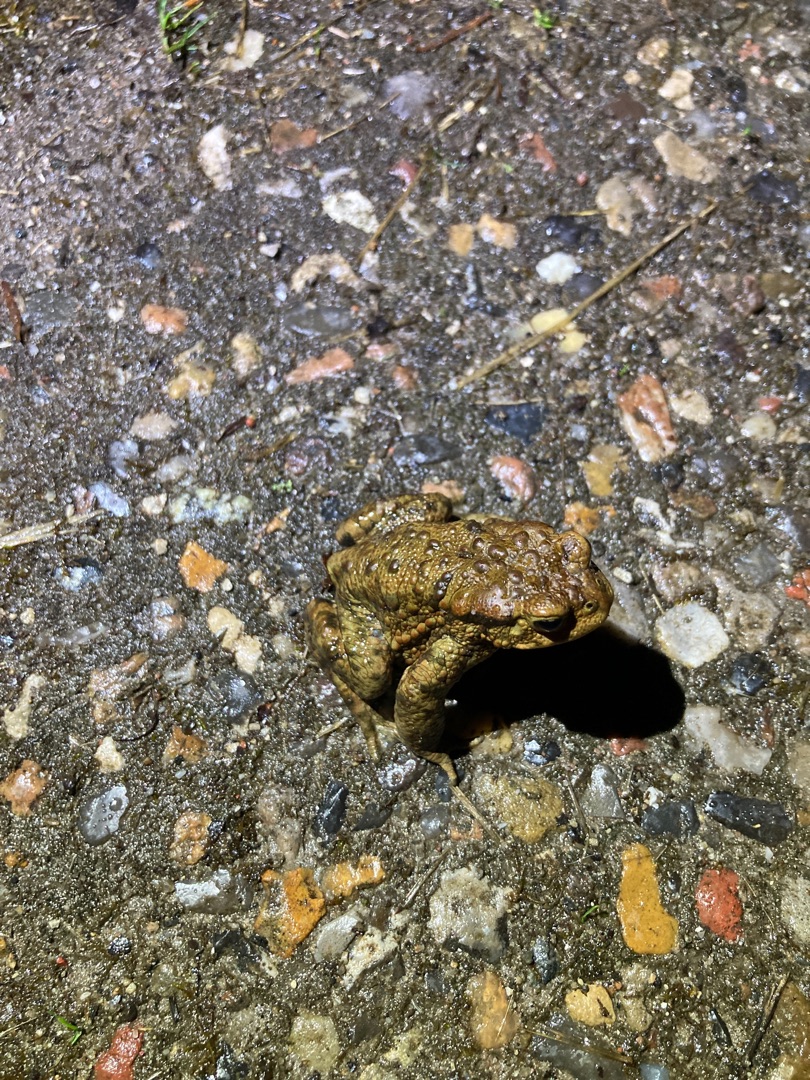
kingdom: Animalia
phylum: Chordata
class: Amphibia
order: Anura
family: Bufonidae
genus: Bufo
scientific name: Bufo bufo
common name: Skrubtudse
